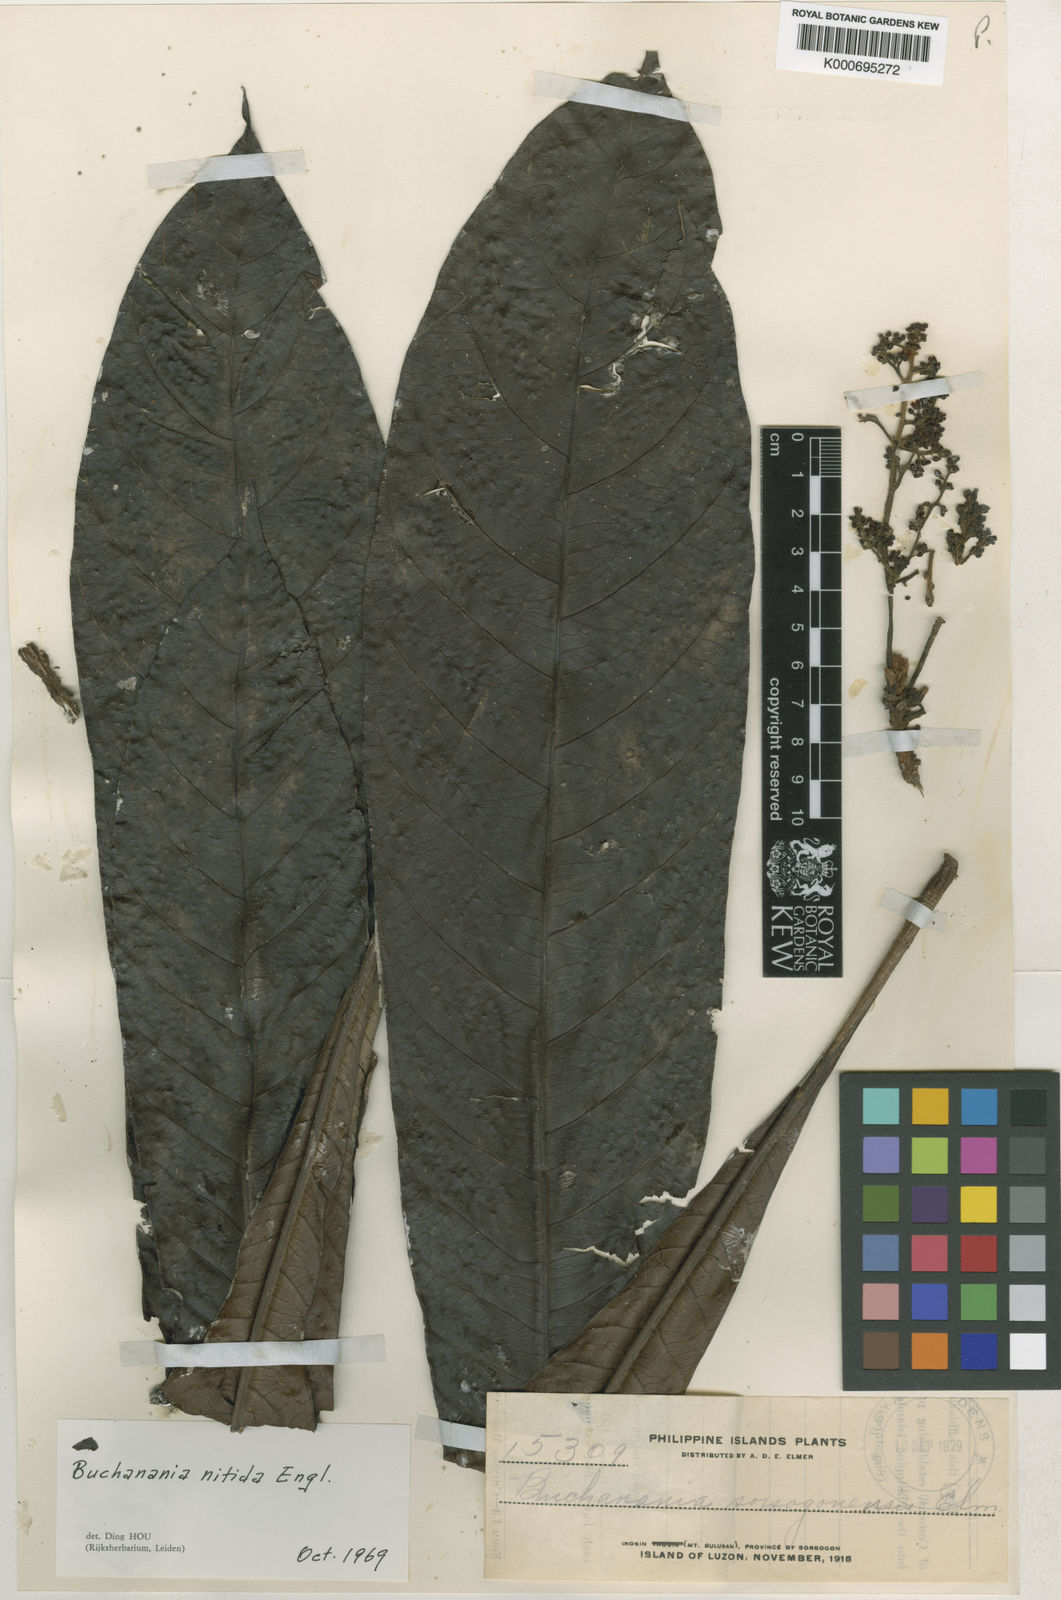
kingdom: Plantae
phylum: Tracheophyta
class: Magnoliopsida
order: Sapindales
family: Anacardiaceae
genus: Buchanania
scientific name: Buchanania nitida
